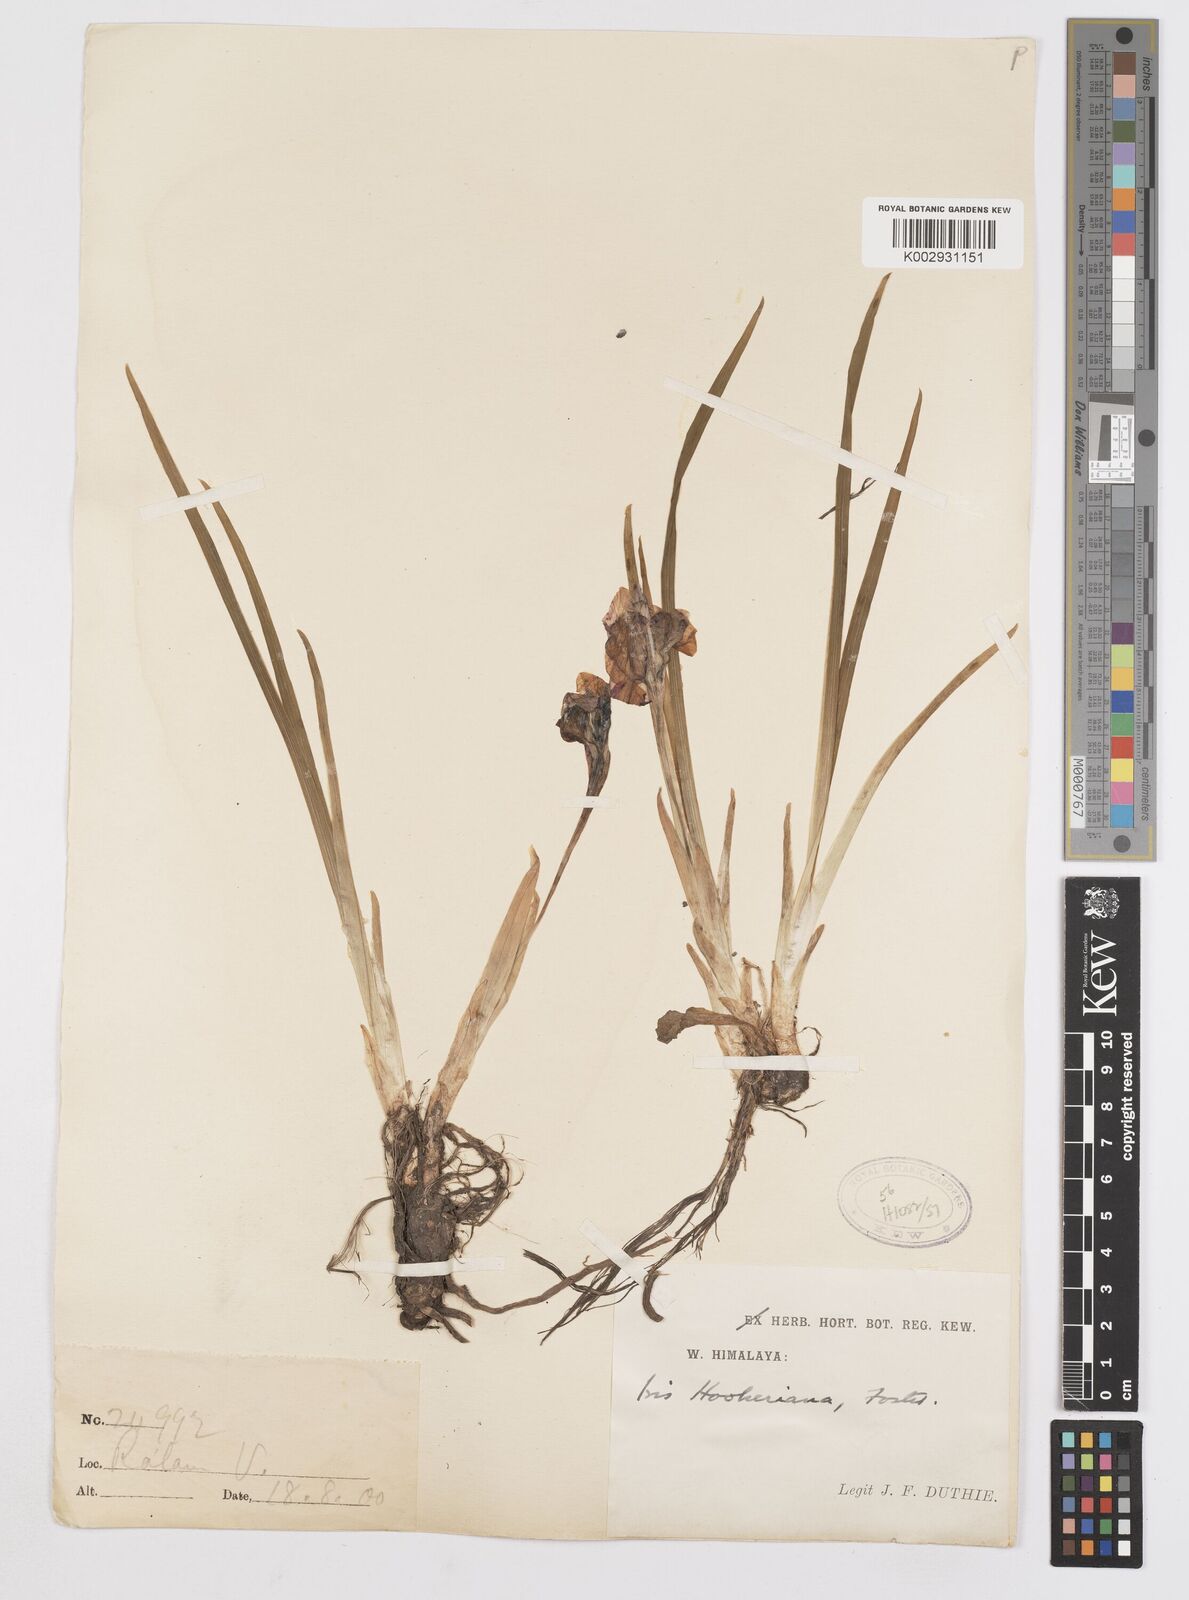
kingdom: Plantae
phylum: Tracheophyta
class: Liliopsida
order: Asparagales
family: Iridaceae
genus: Iris
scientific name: Iris kemaonensis
